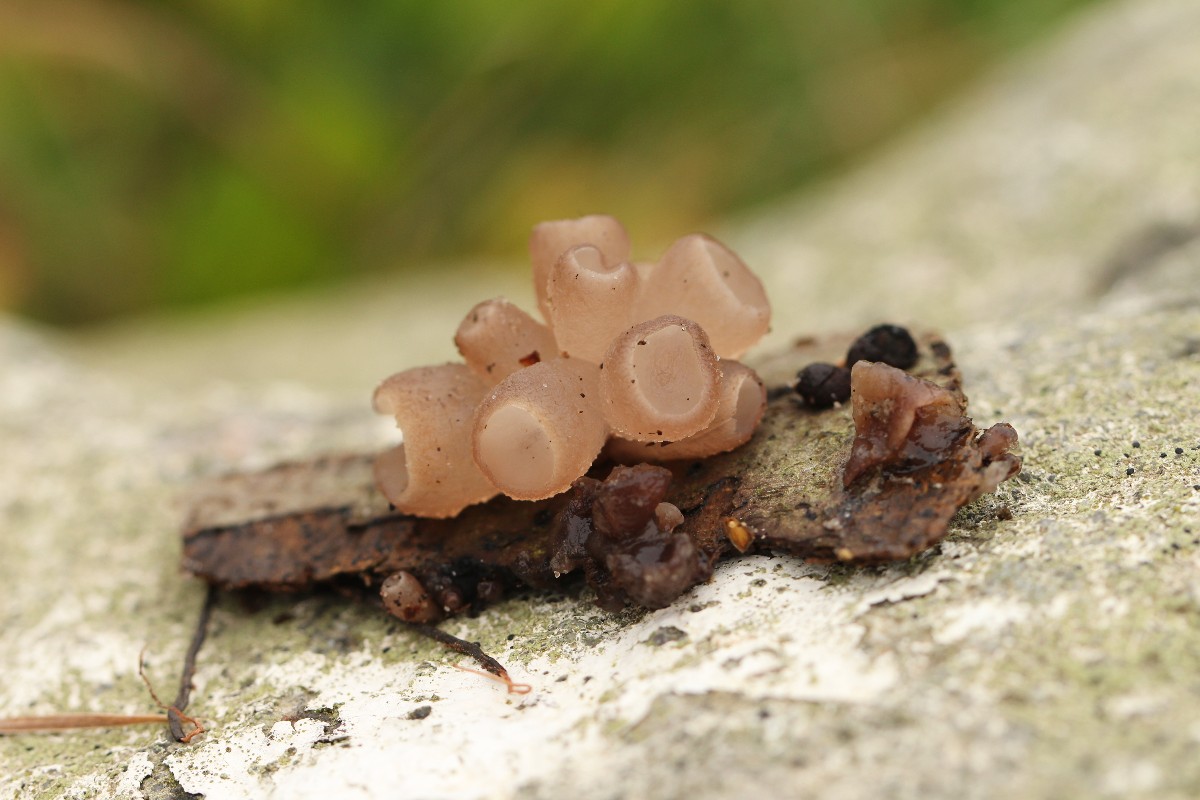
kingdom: Fungi
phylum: Ascomycota
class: Leotiomycetes
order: Helotiales
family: Gelatinodiscaceae
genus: Neobulgaria
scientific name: Neobulgaria pura
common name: bleg bævreskive
